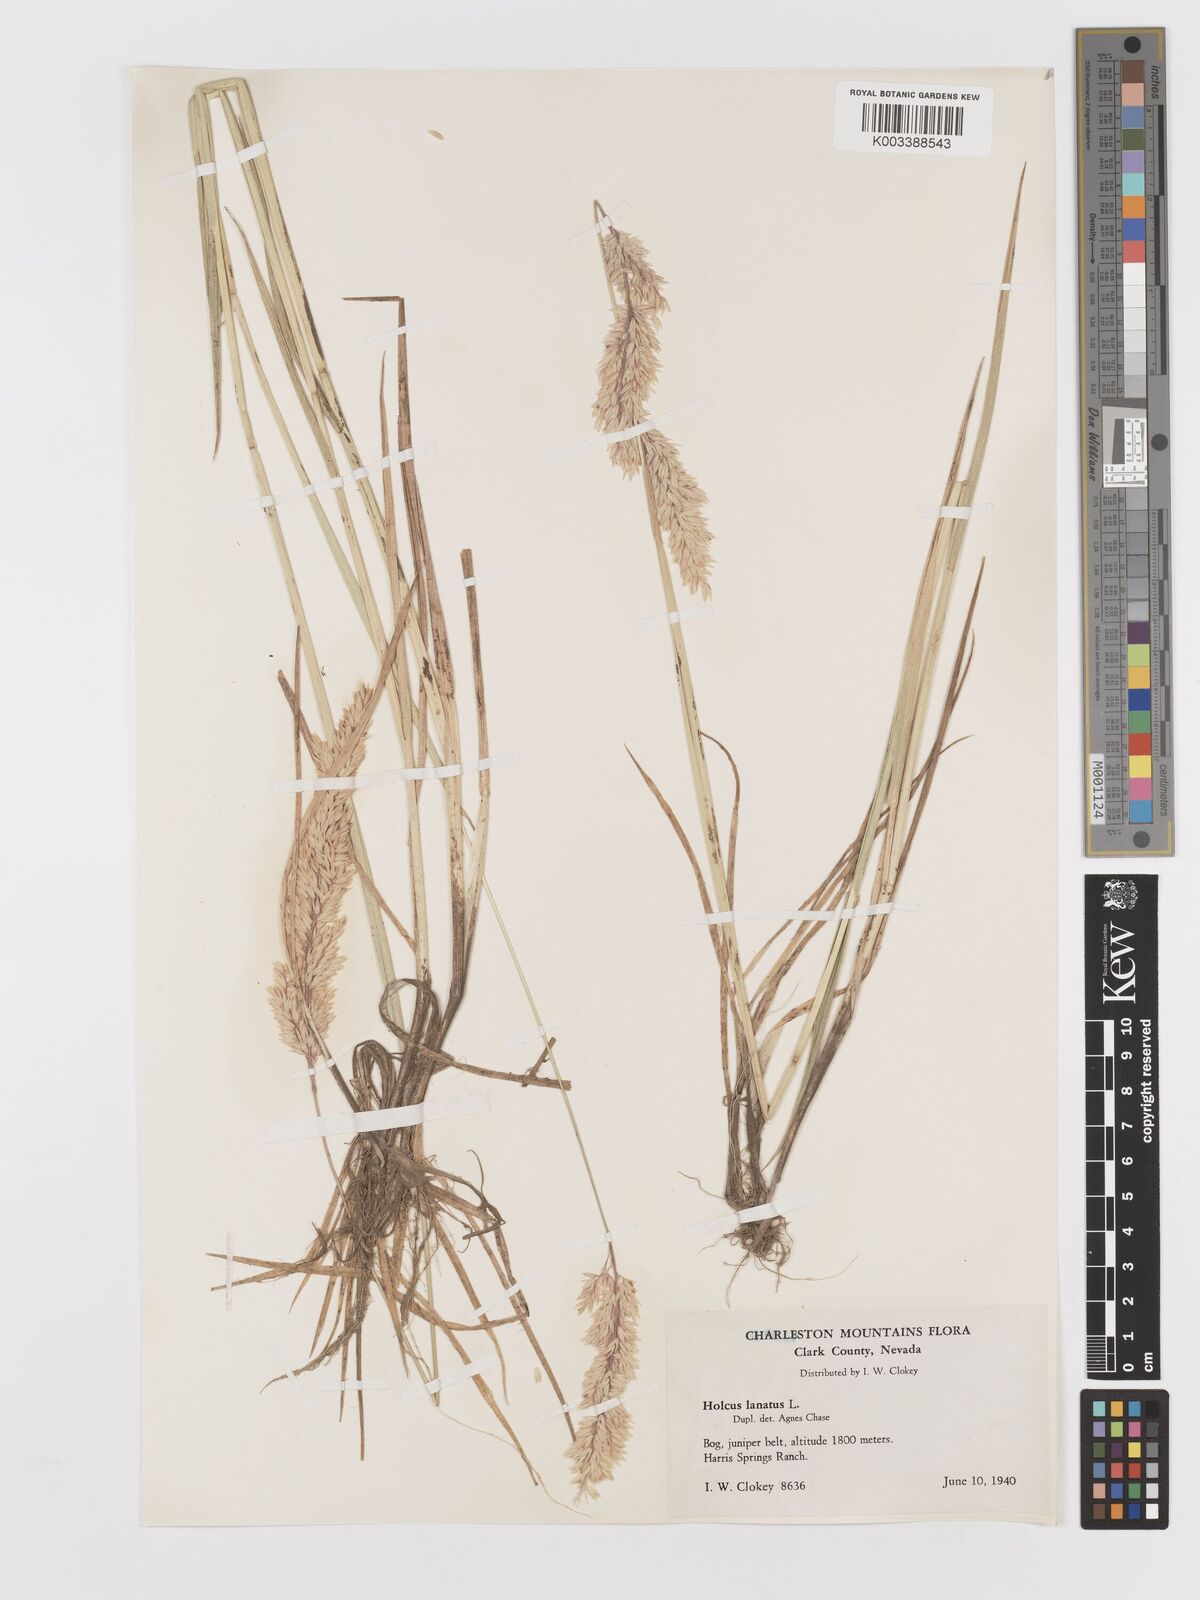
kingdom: Plantae
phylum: Tracheophyta
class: Liliopsida
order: Poales
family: Poaceae
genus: Holcus
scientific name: Holcus lanatus
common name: Yorkshire-fog
